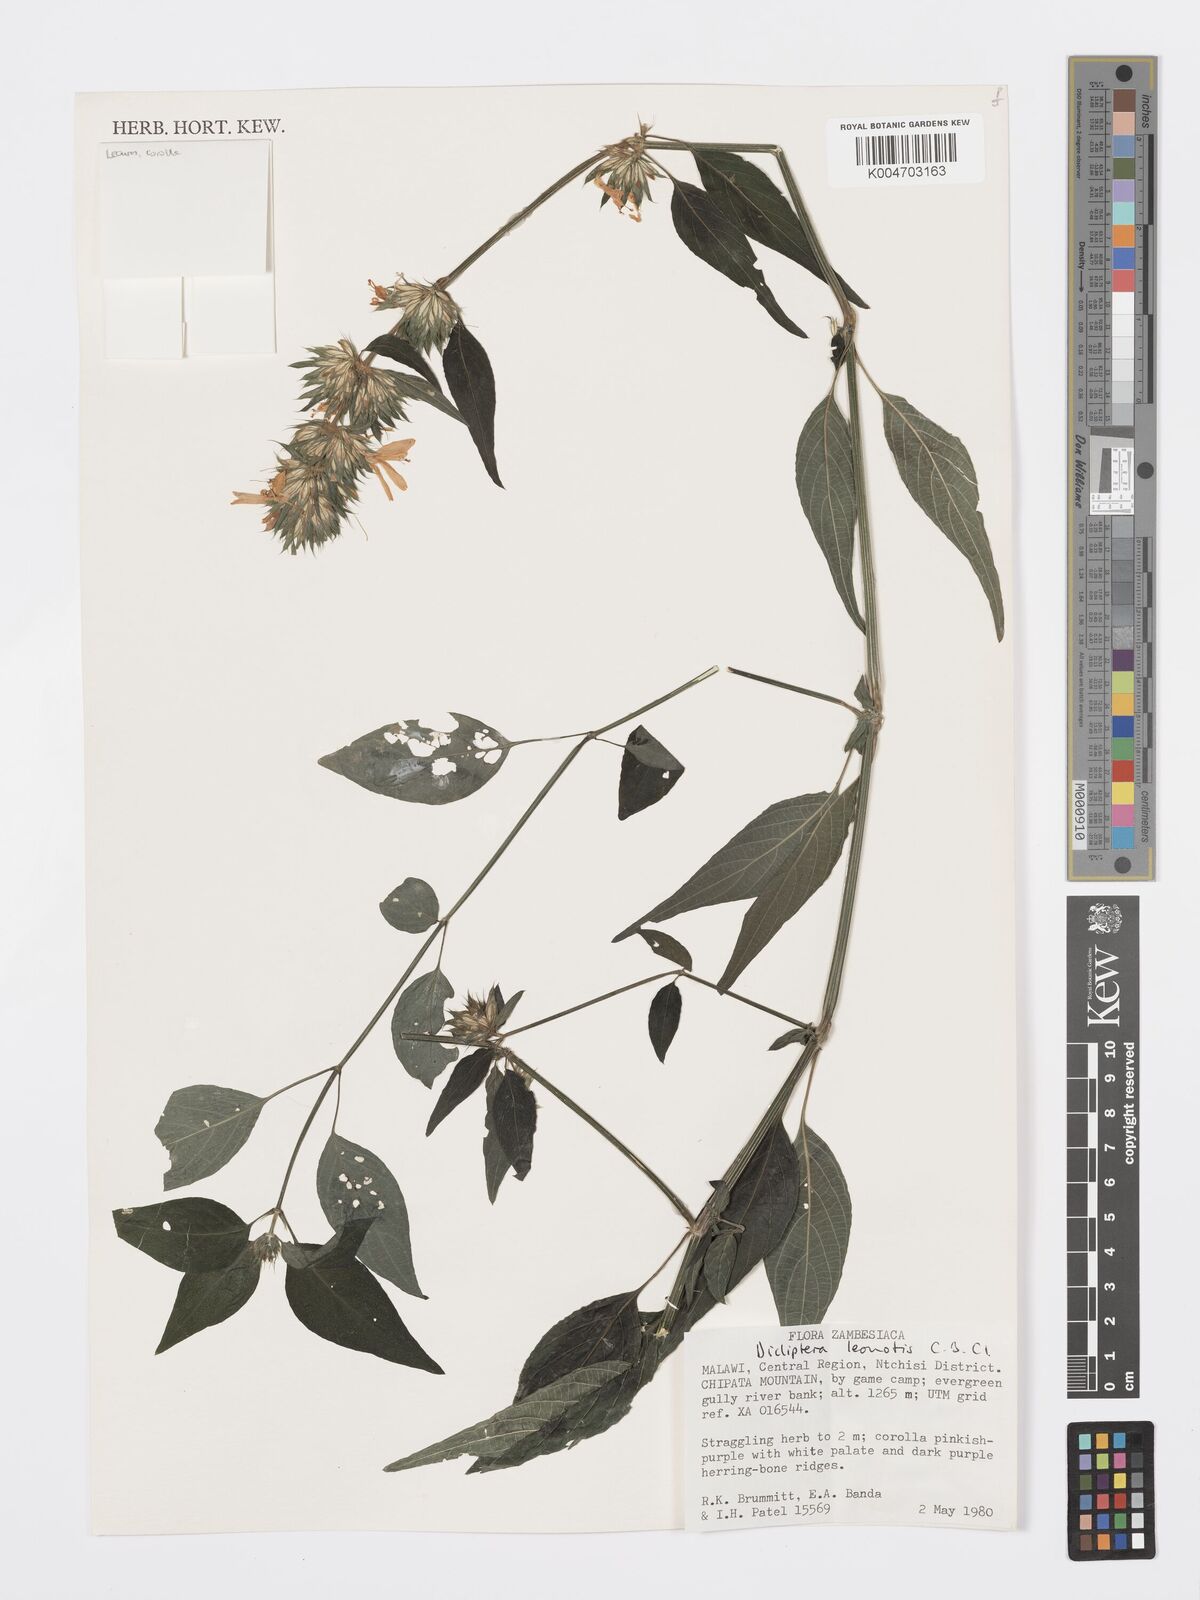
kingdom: Plantae
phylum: Tracheophyta
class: Magnoliopsida
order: Lamiales
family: Acanthaceae
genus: Dicliptera
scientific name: Dicliptera clinopodia
